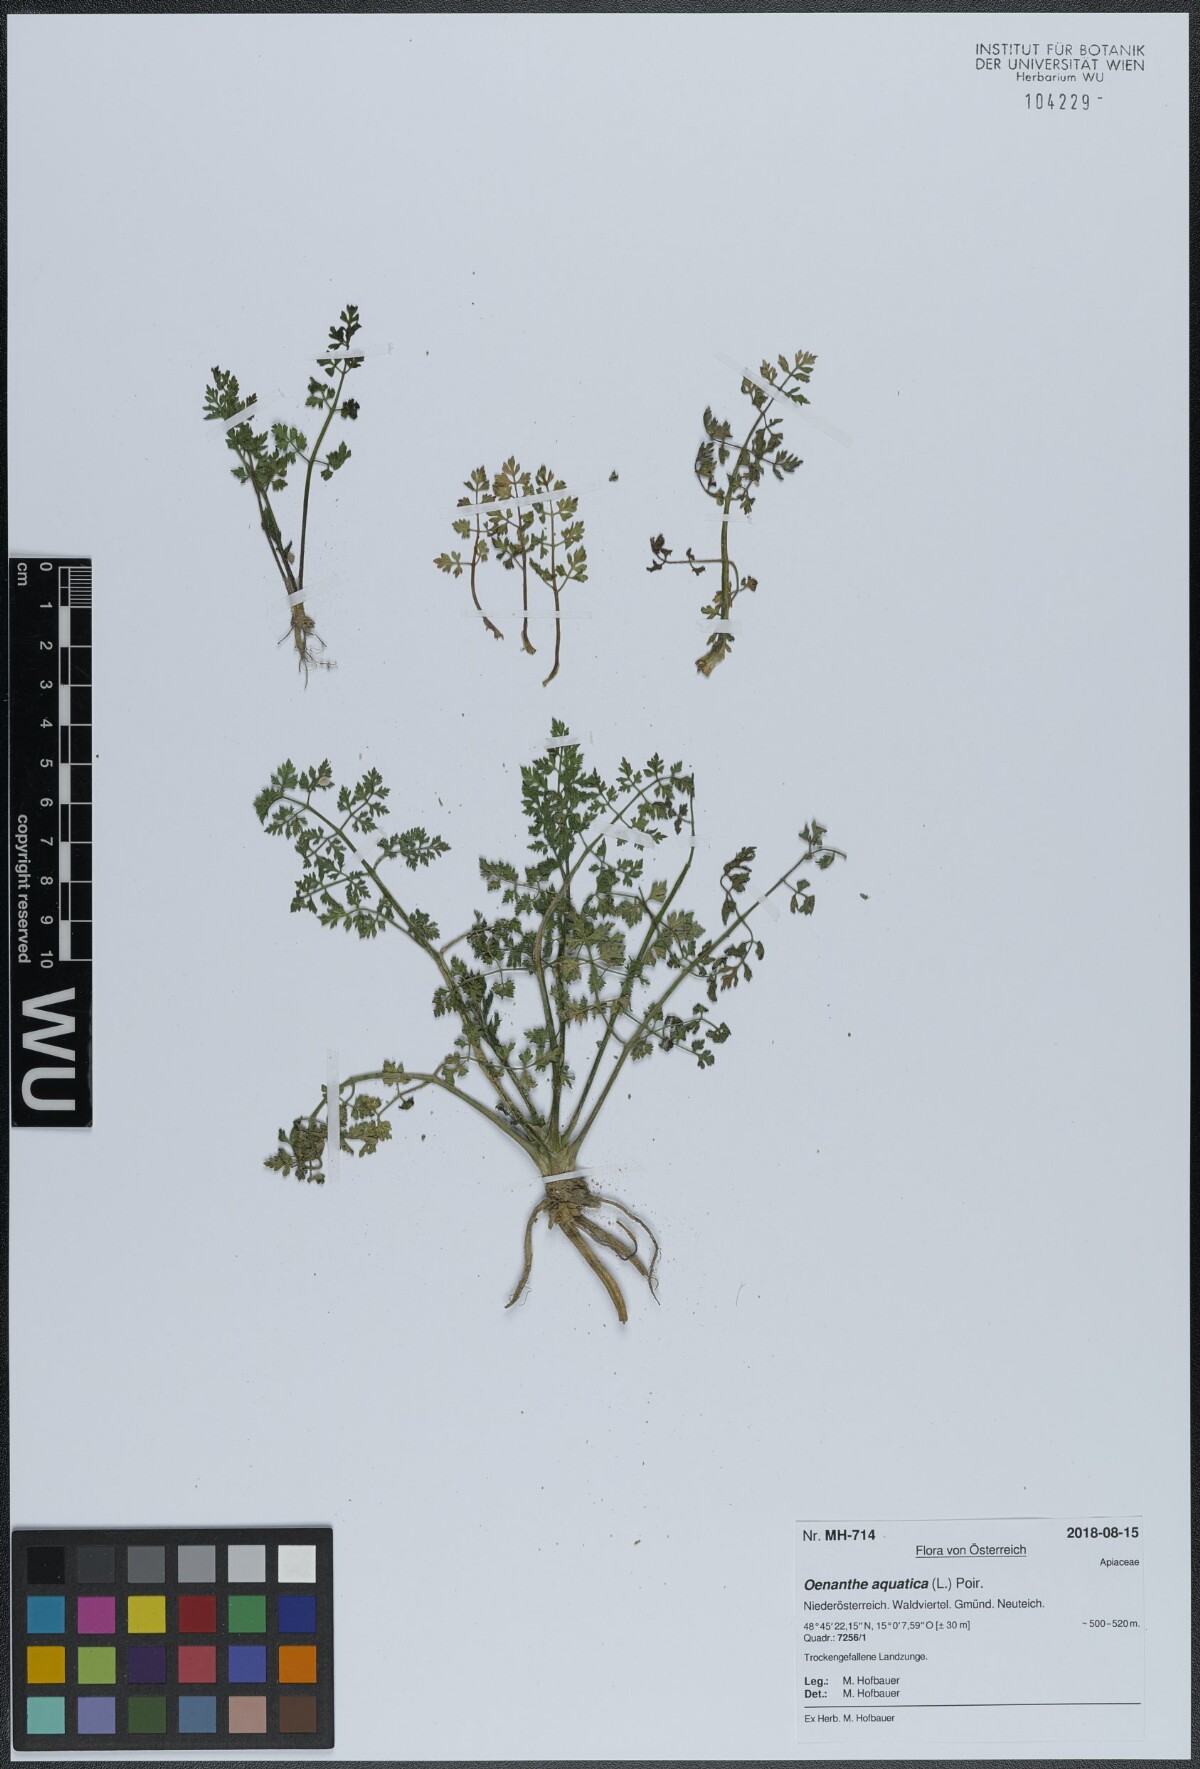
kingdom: Plantae
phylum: Tracheophyta
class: Magnoliopsida
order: Apiales
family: Apiaceae
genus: Oenanthe
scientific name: Oenanthe aquatica
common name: Fine-leaved water-dropwort
